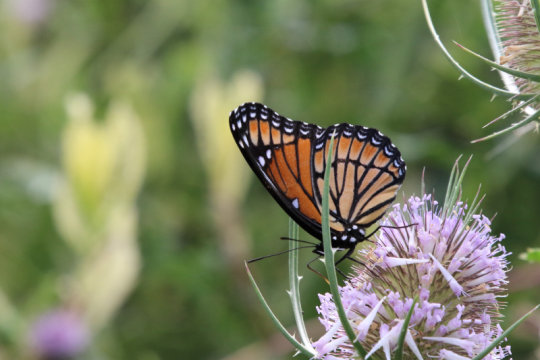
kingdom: Animalia
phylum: Arthropoda
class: Insecta
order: Lepidoptera
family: Nymphalidae
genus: Limenitis
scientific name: Limenitis archippus
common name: Viceroy
